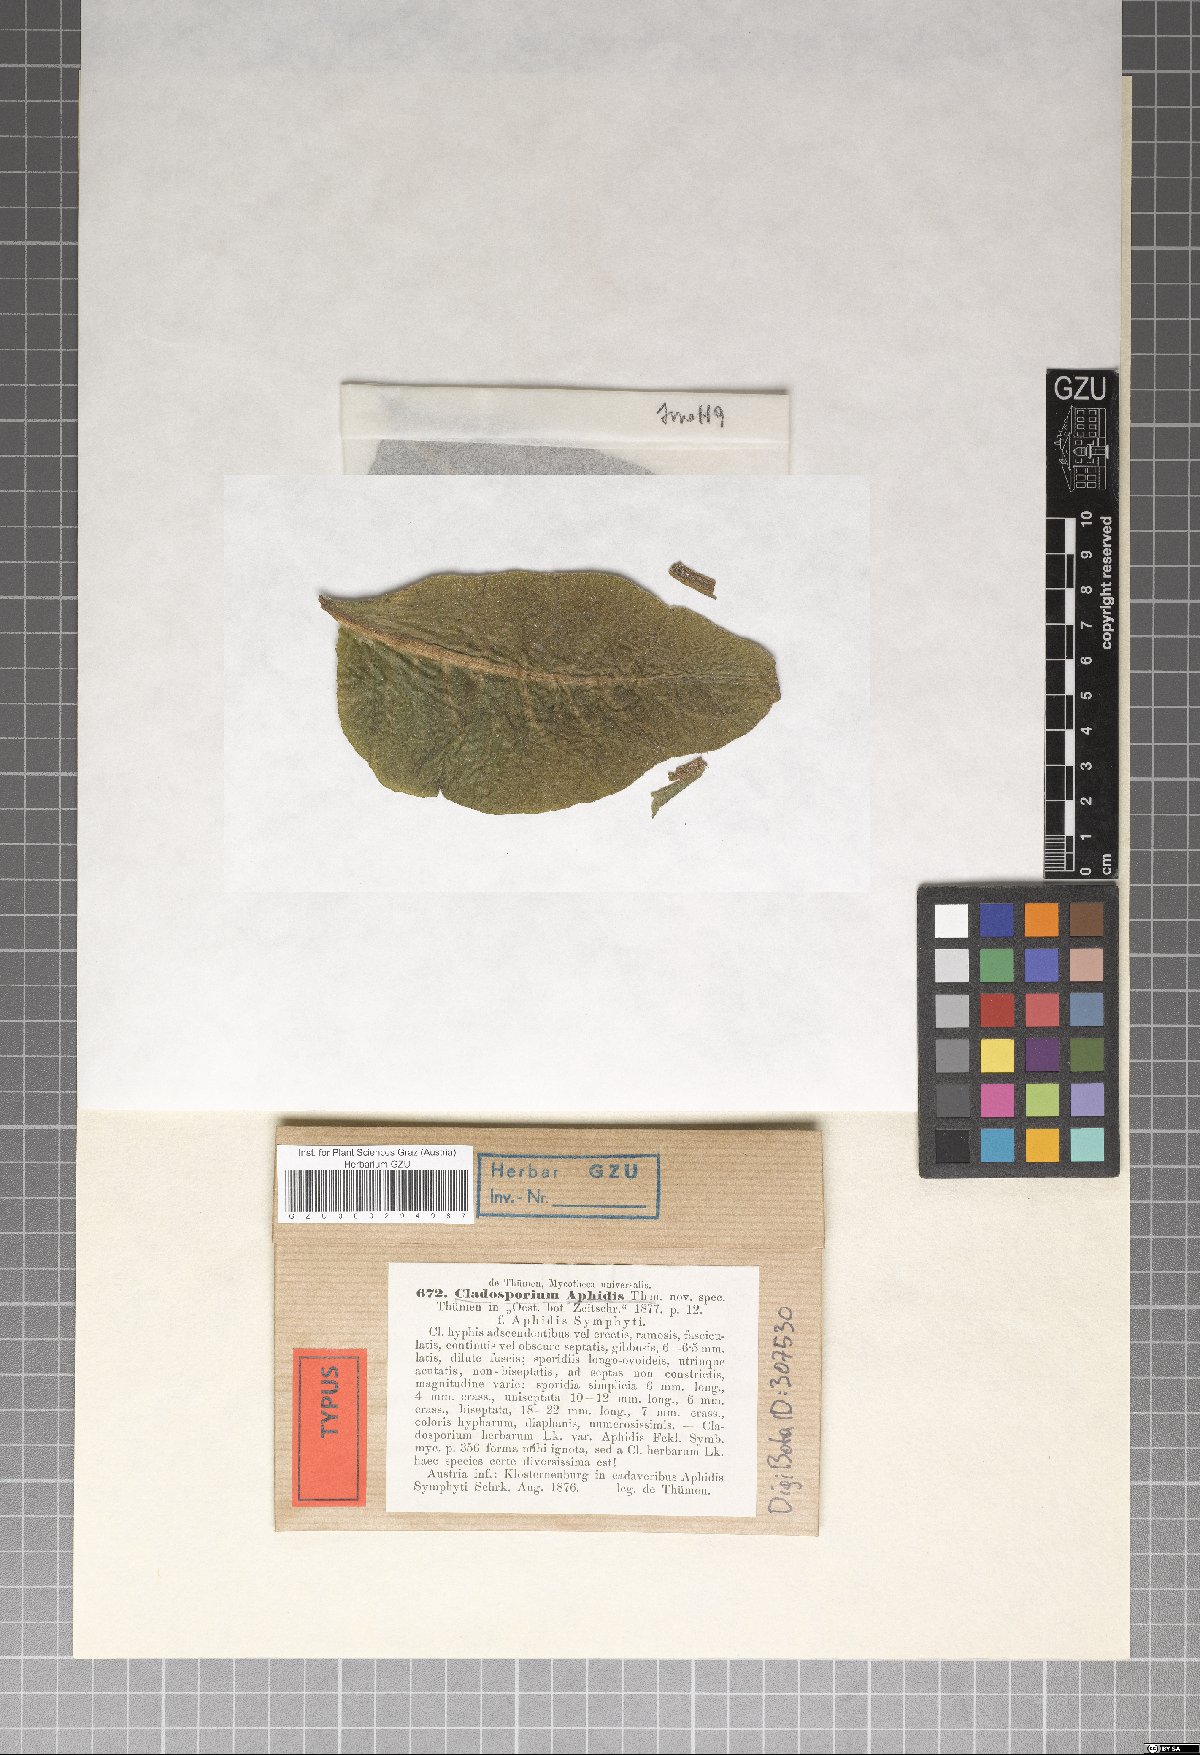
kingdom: Fungi
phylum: Ascomycota
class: Dothideomycetes
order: Capnodiales
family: Cladosporiaceae
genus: Cladosporium
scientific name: Cladosporium aphidis
